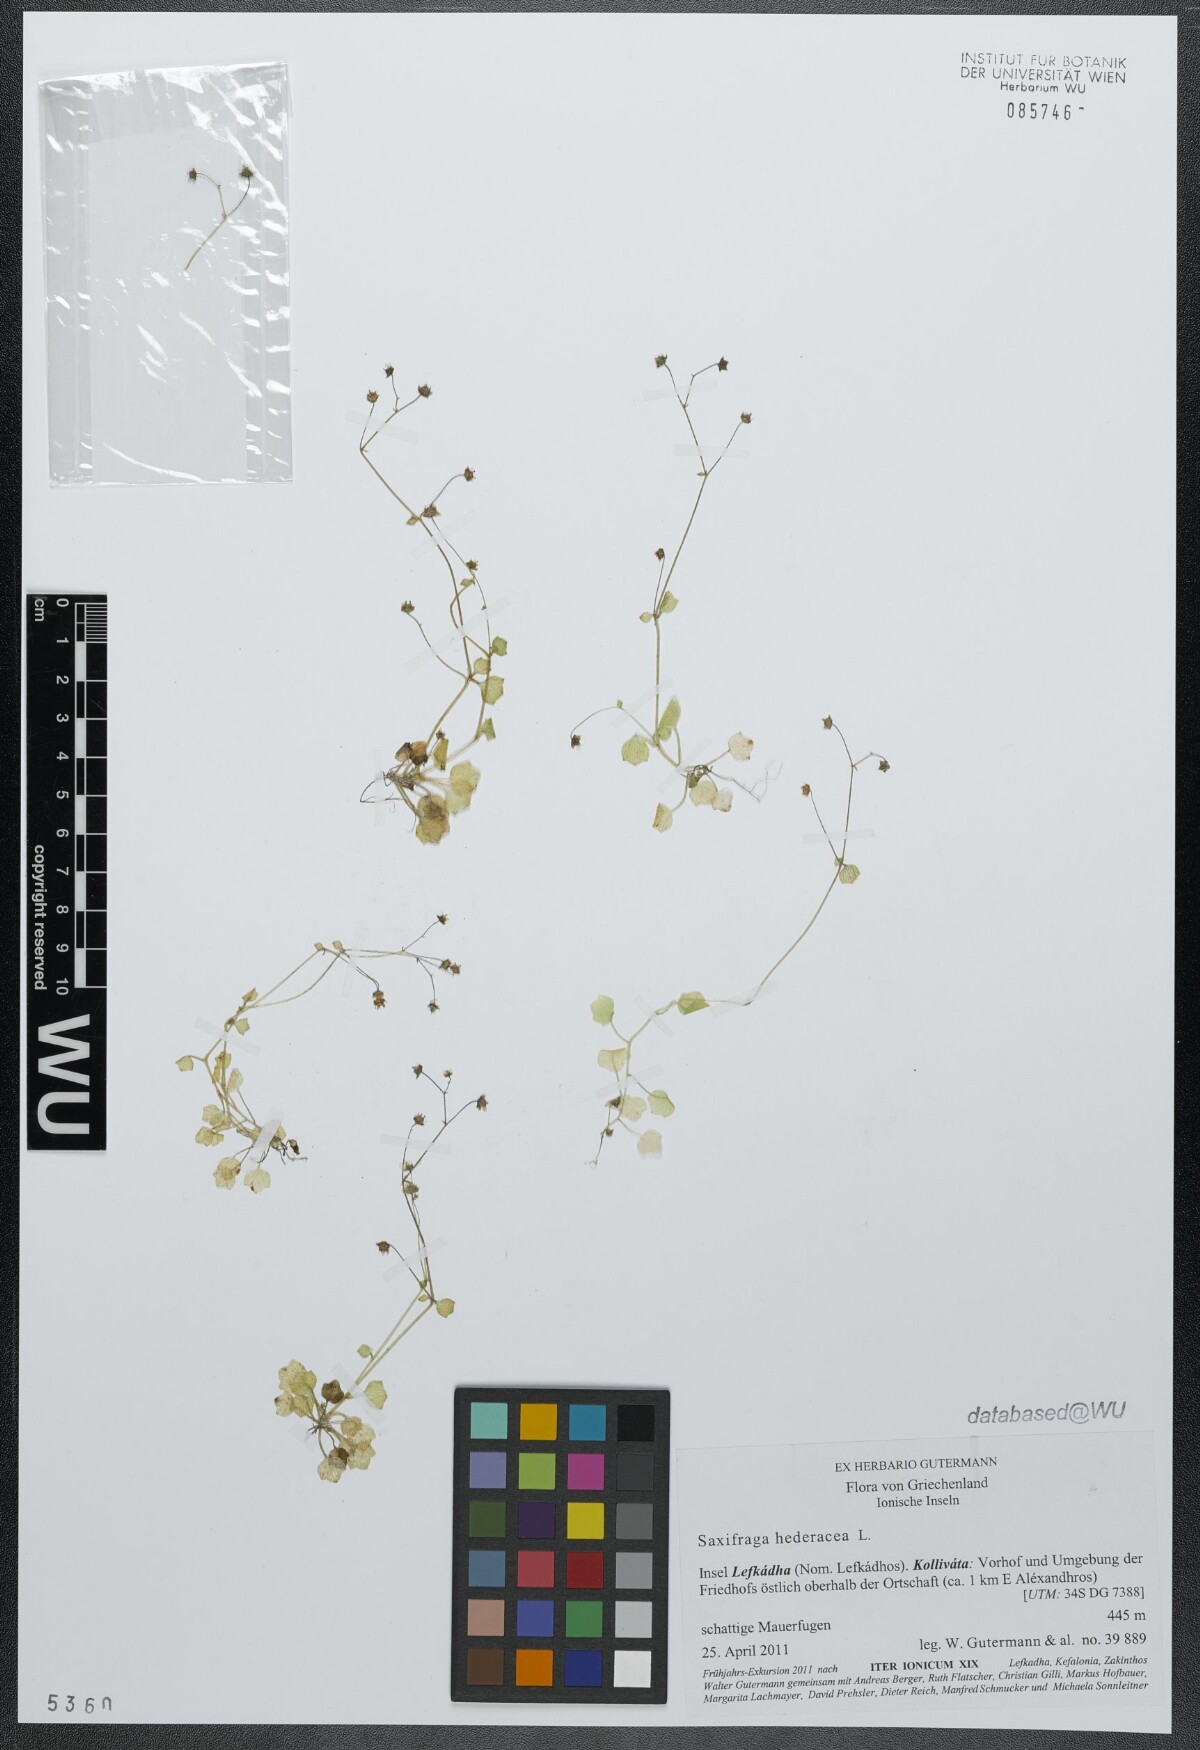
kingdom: Plantae
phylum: Tracheophyta
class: Magnoliopsida
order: Saxifragales
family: Saxifragaceae
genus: Saxifraga
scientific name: Saxifraga hederacea
